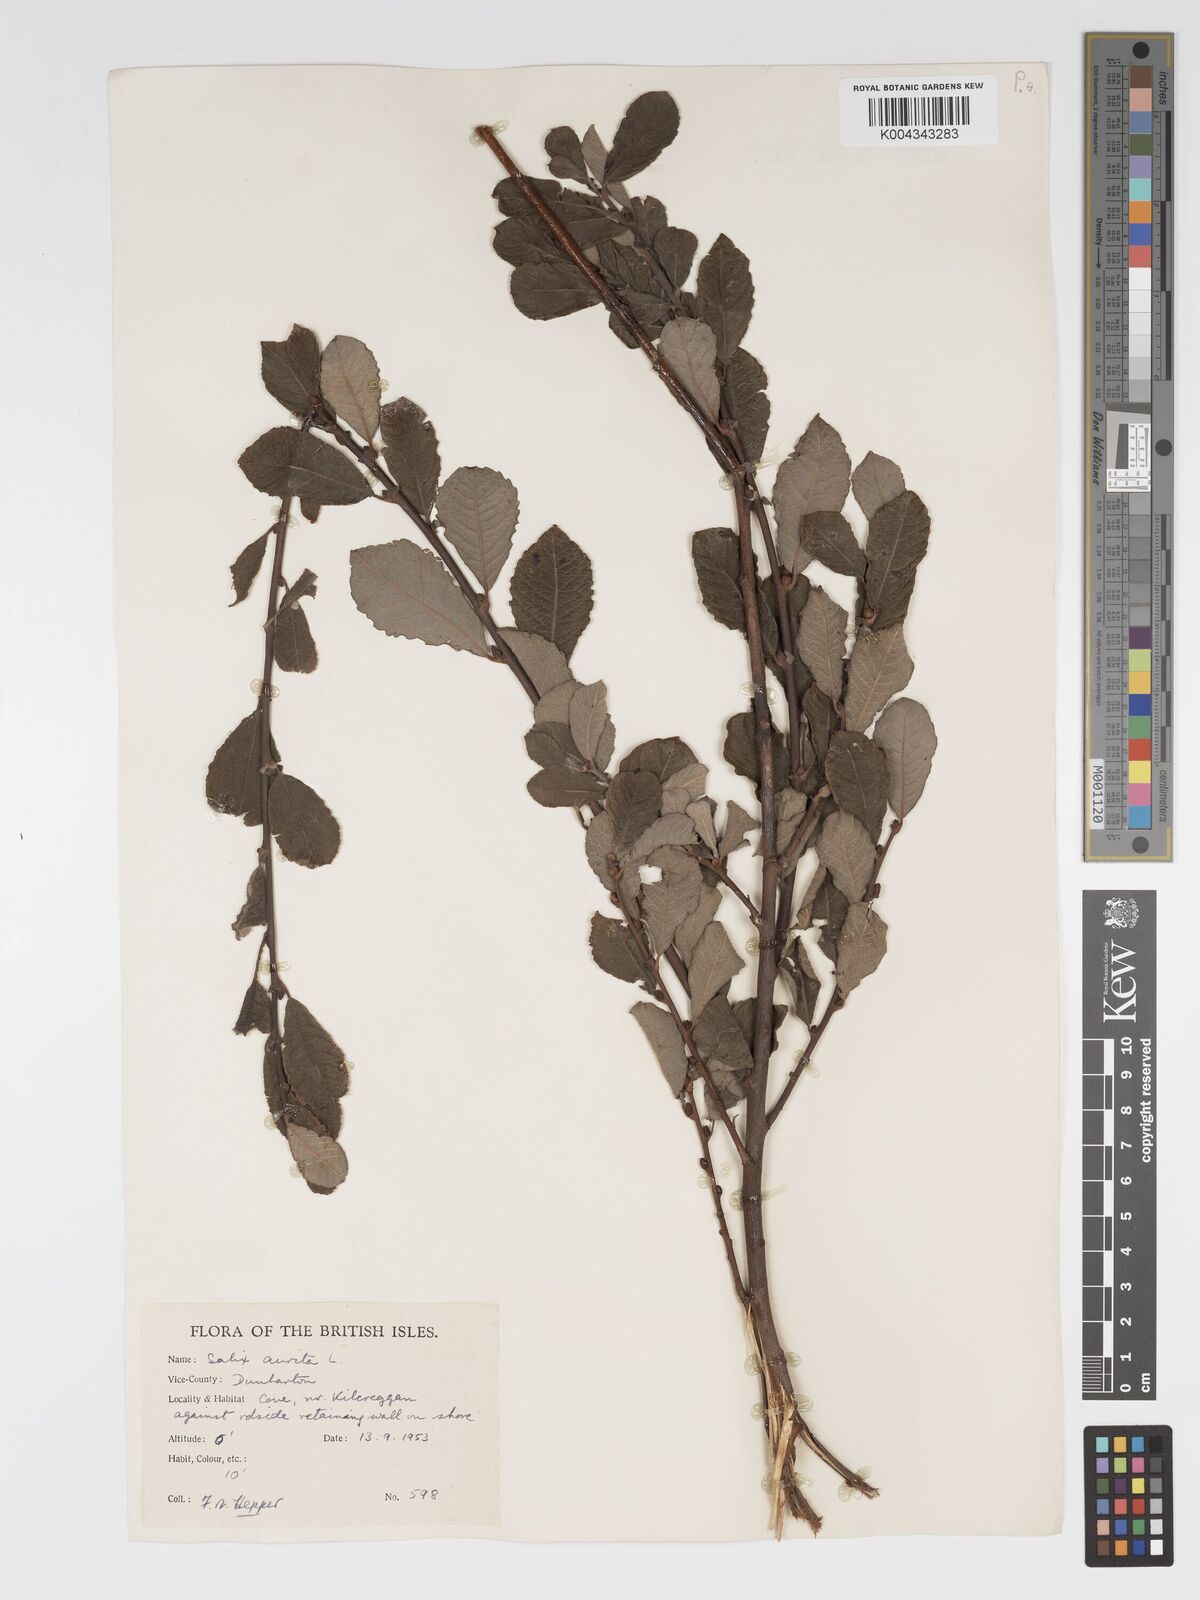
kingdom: Plantae
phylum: Tracheophyta
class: Magnoliopsida
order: Malpighiales
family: Salicaceae
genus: Salix
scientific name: Salix aurita
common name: Eared willow
